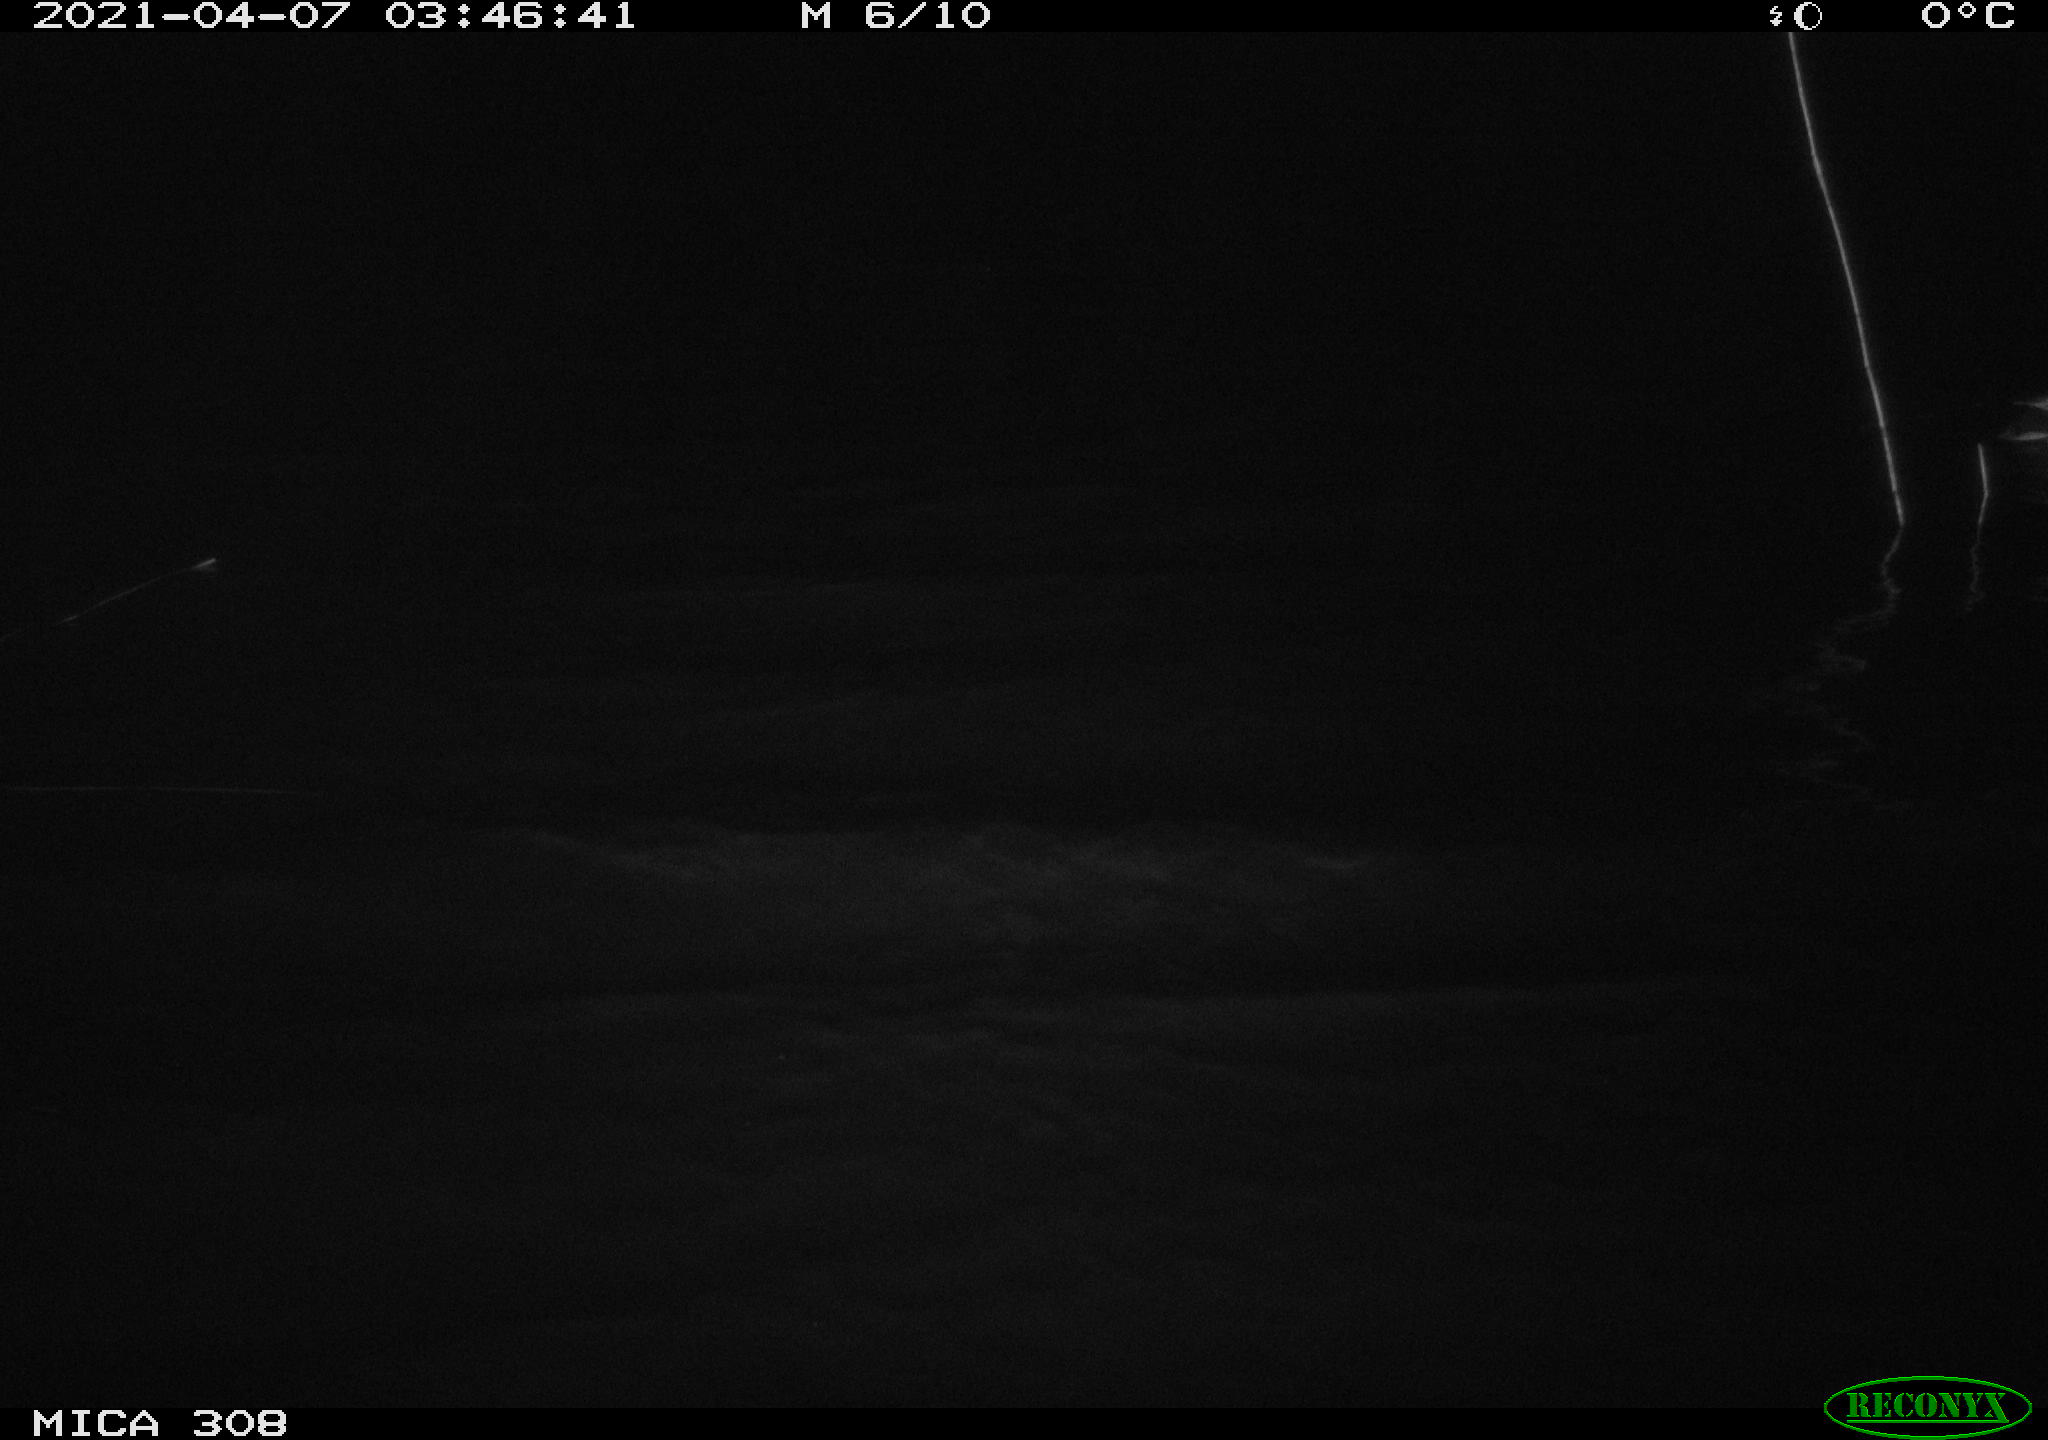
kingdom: Animalia
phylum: Chordata
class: Aves
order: Anseriformes
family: Anatidae
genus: Anas
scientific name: Anas platyrhynchos
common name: Mallard
